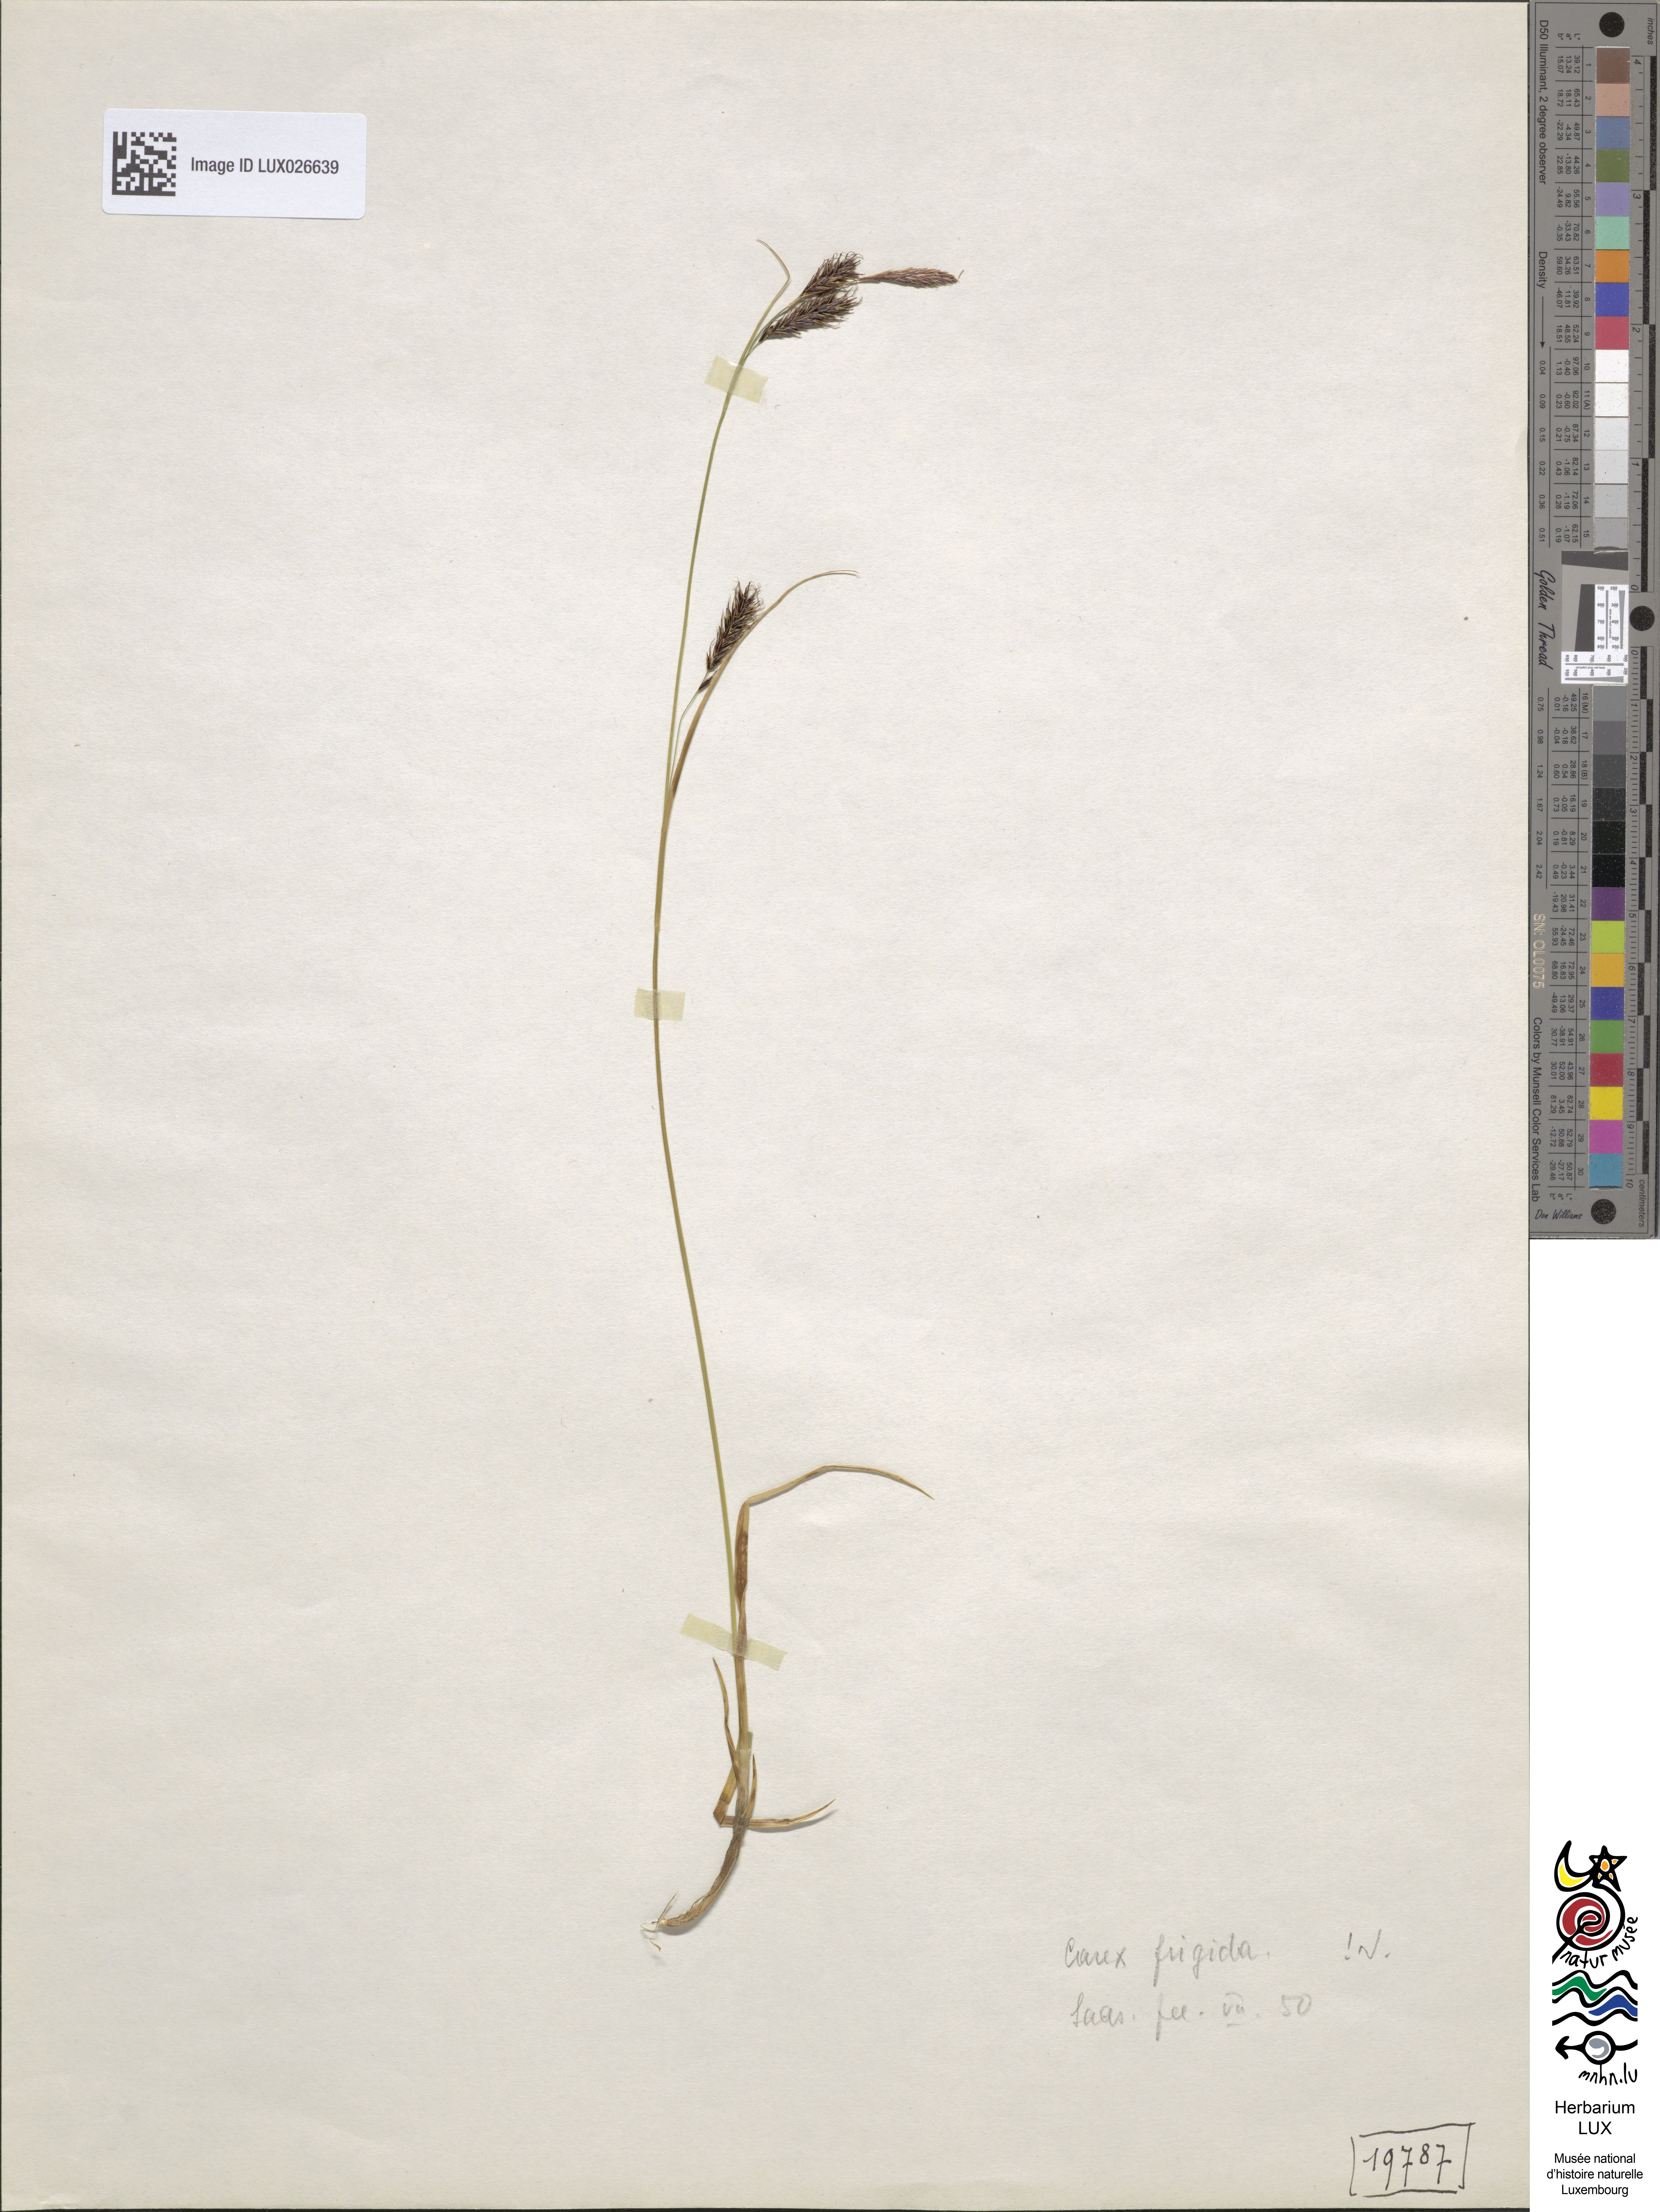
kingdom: Plantae
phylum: Tracheophyta
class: Liliopsida
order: Poales
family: Cyperaceae
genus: Carex
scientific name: Carex frigida
